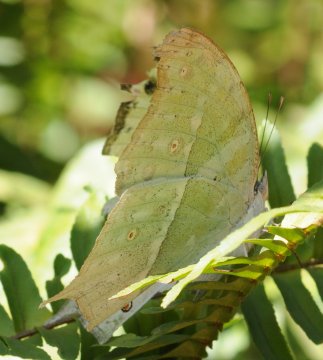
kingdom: Animalia
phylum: Arthropoda
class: Insecta
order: Lepidoptera
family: Nymphalidae
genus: Salamis
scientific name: Salamis Protogoniomorpha parhassus
